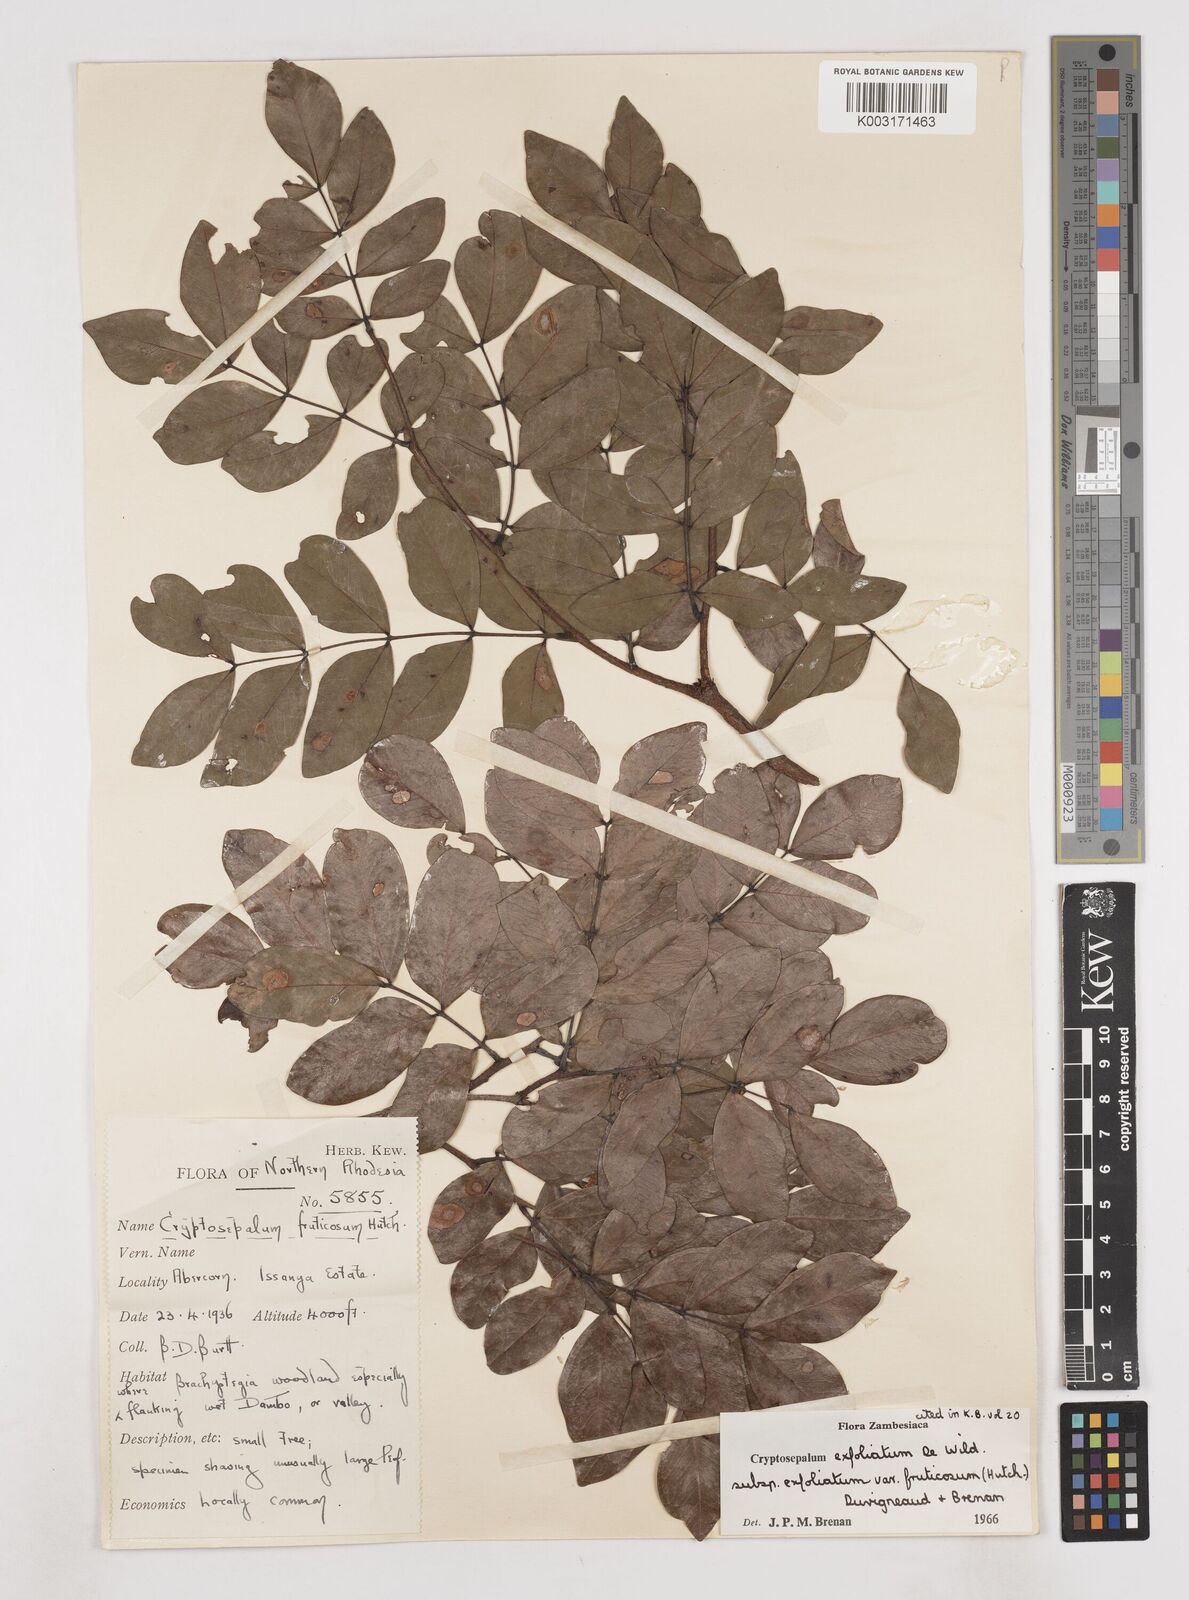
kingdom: Plantae
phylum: Tracheophyta
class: Magnoliopsida
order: Fabales
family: Fabaceae
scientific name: Fabaceae
